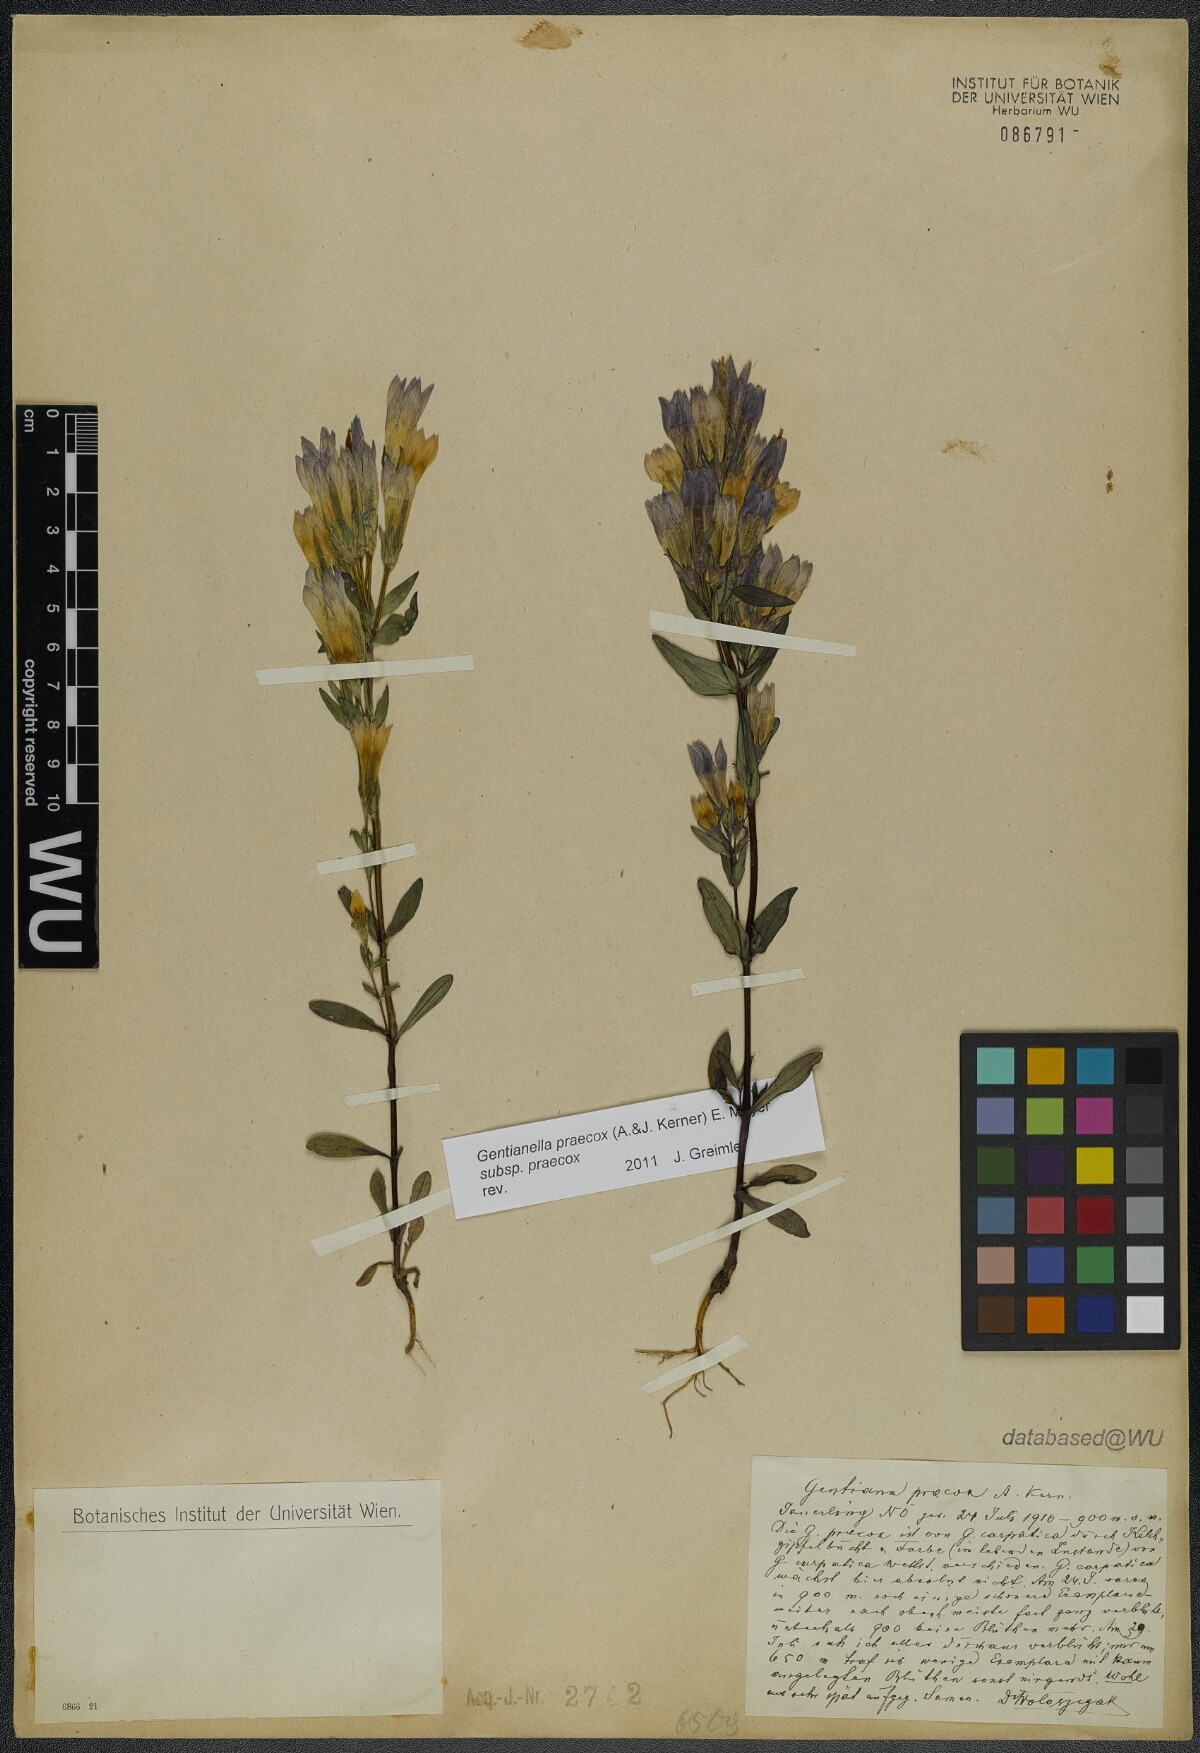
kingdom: Plantae
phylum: Tracheophyta
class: Magnoliopsida
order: Gentianales
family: Gentianaceae
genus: Gentianella
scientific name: Gentianella praecox
